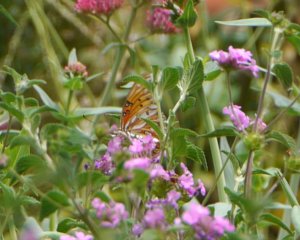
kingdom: Animalia
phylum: Arthropoda
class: Insecta
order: Lepidoptera
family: Nymphalidae
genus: Dione
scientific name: Dione vanillae
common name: Gulf Fritillary
